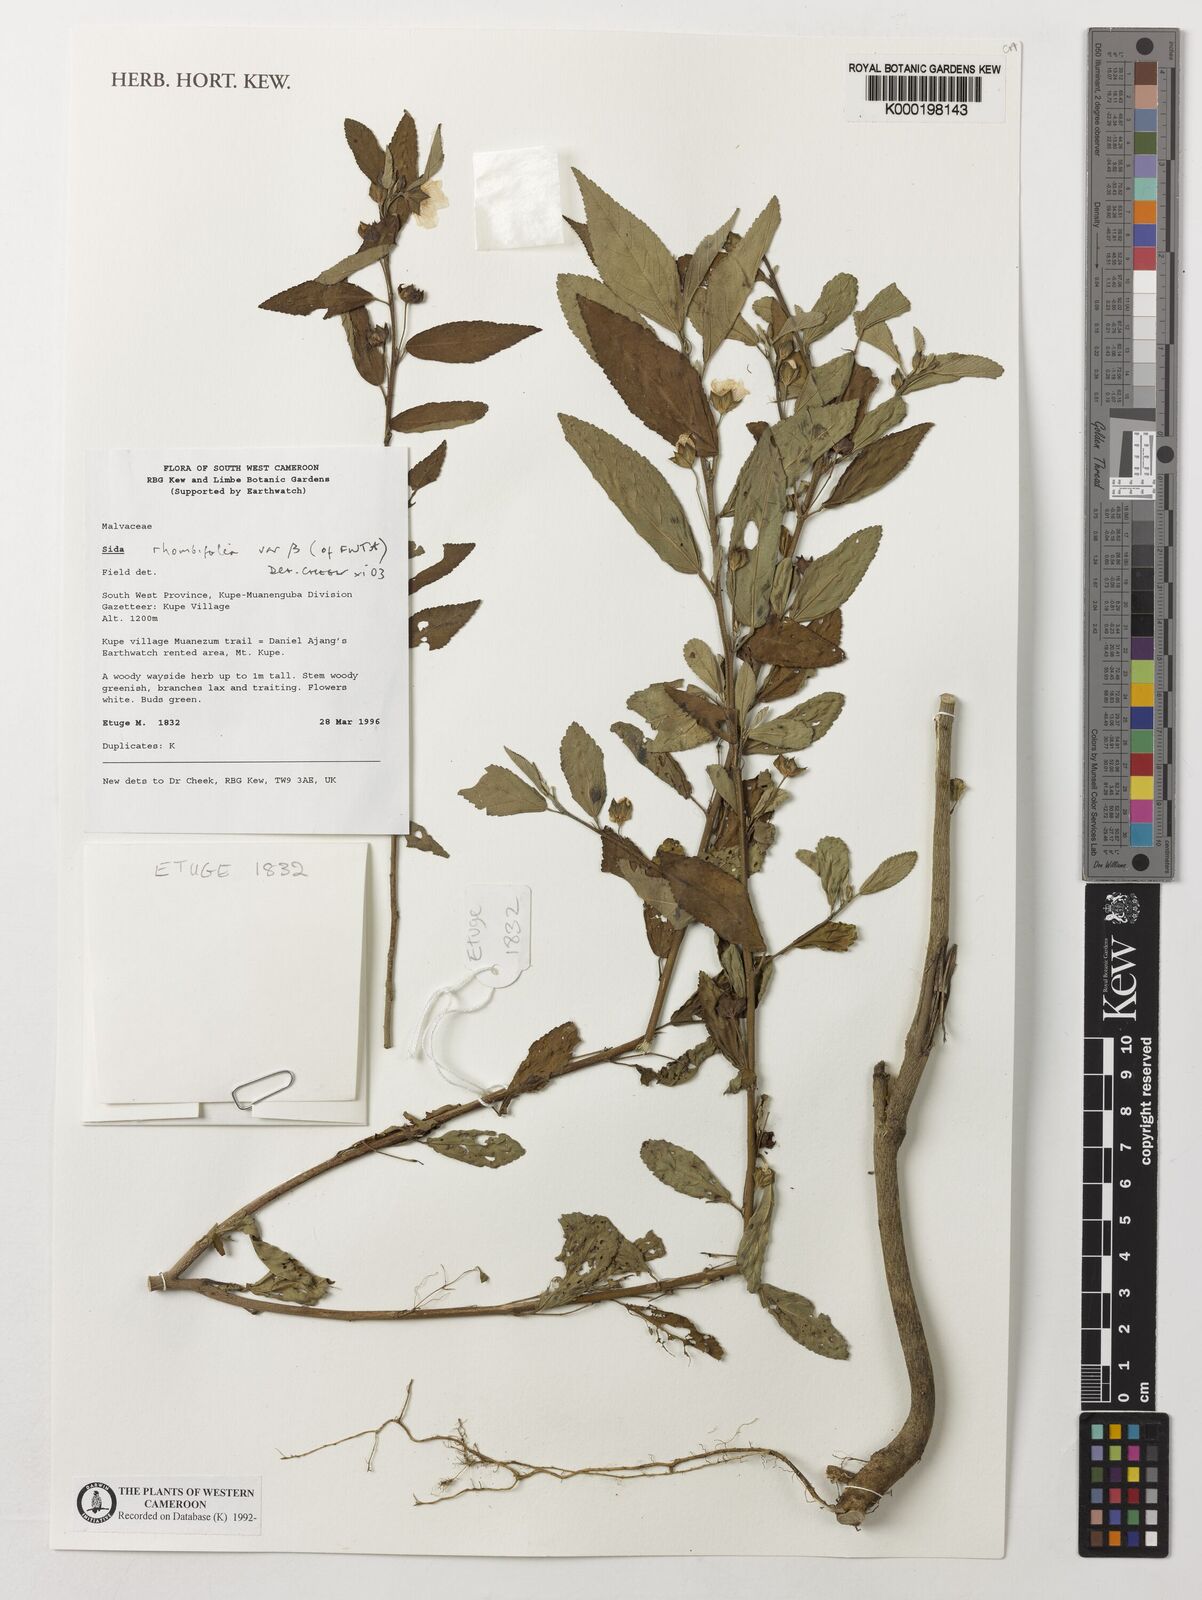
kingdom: Plantae
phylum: Tracheophyta
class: Magnoliopsida
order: Malvales
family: Malvaceae
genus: Sida
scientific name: Sida rhombifolia
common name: Queensland-hemp
